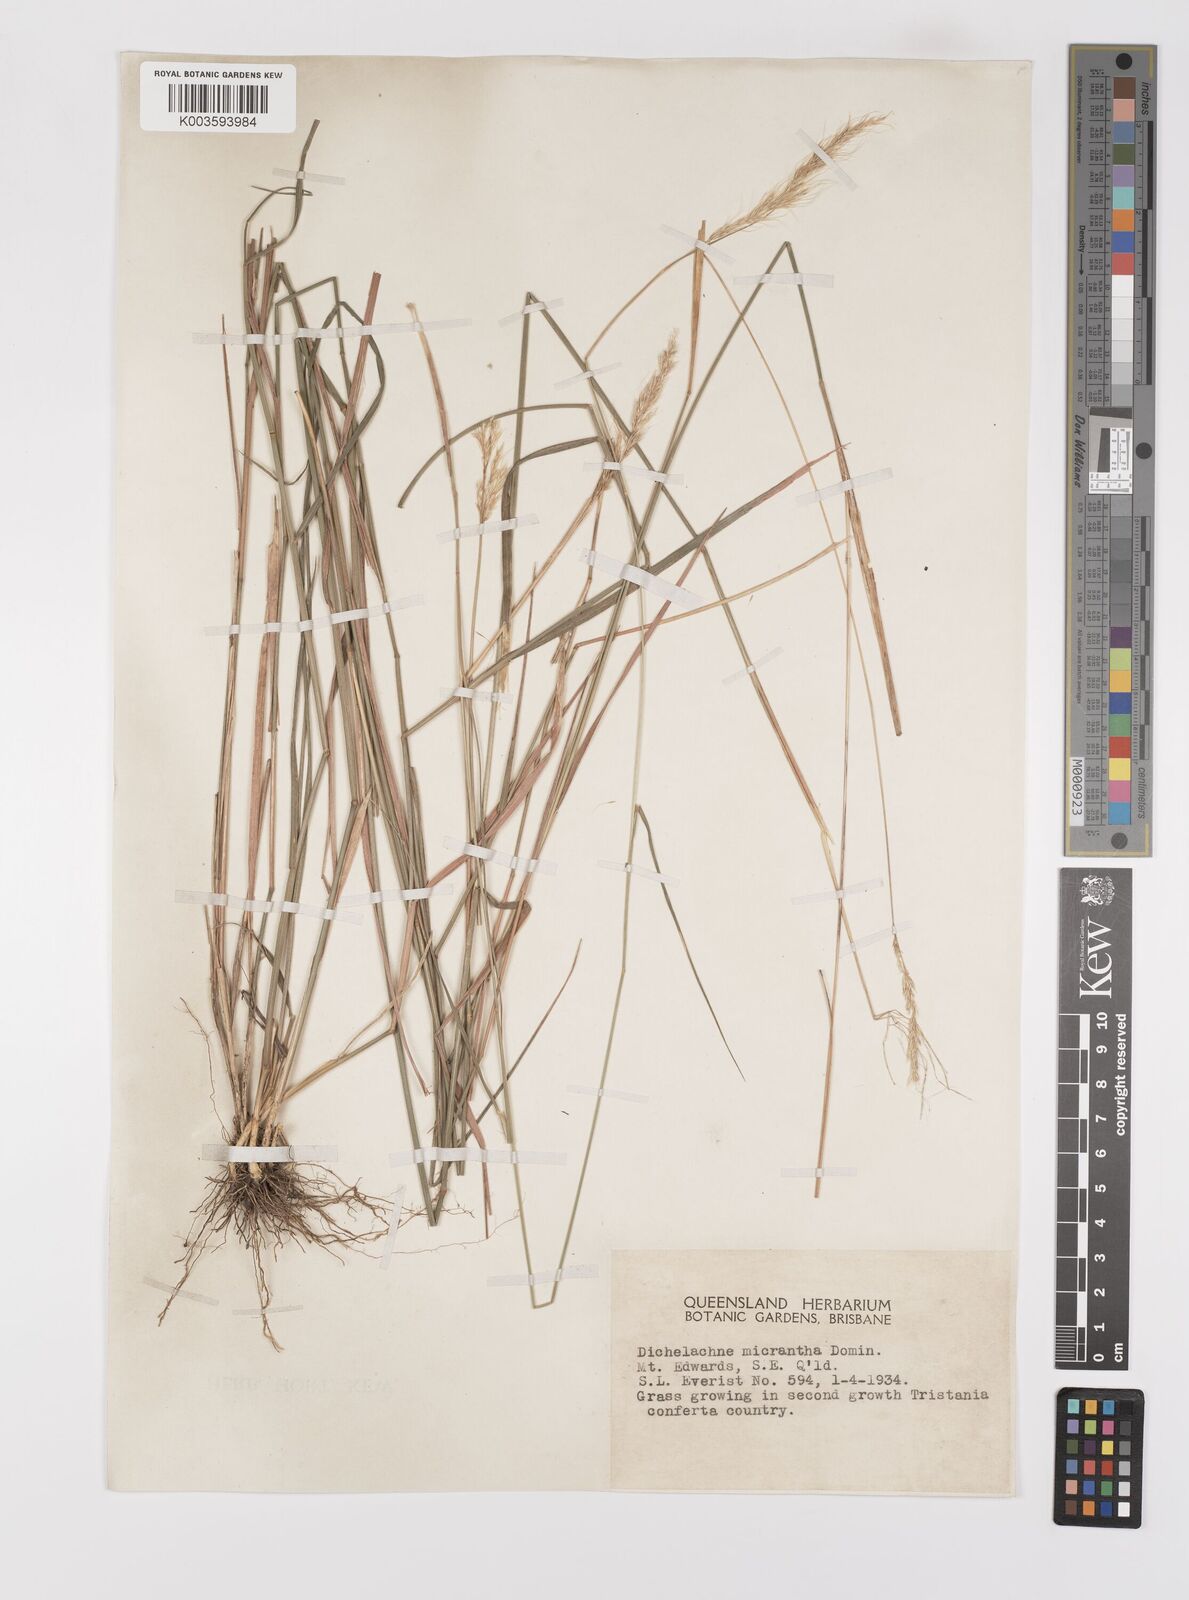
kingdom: Plantae
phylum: Tracheophyta
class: Liliopsida
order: Poales
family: Poaceae
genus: Dichelachne
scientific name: Dichelachne micrantha
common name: Plumegrass
